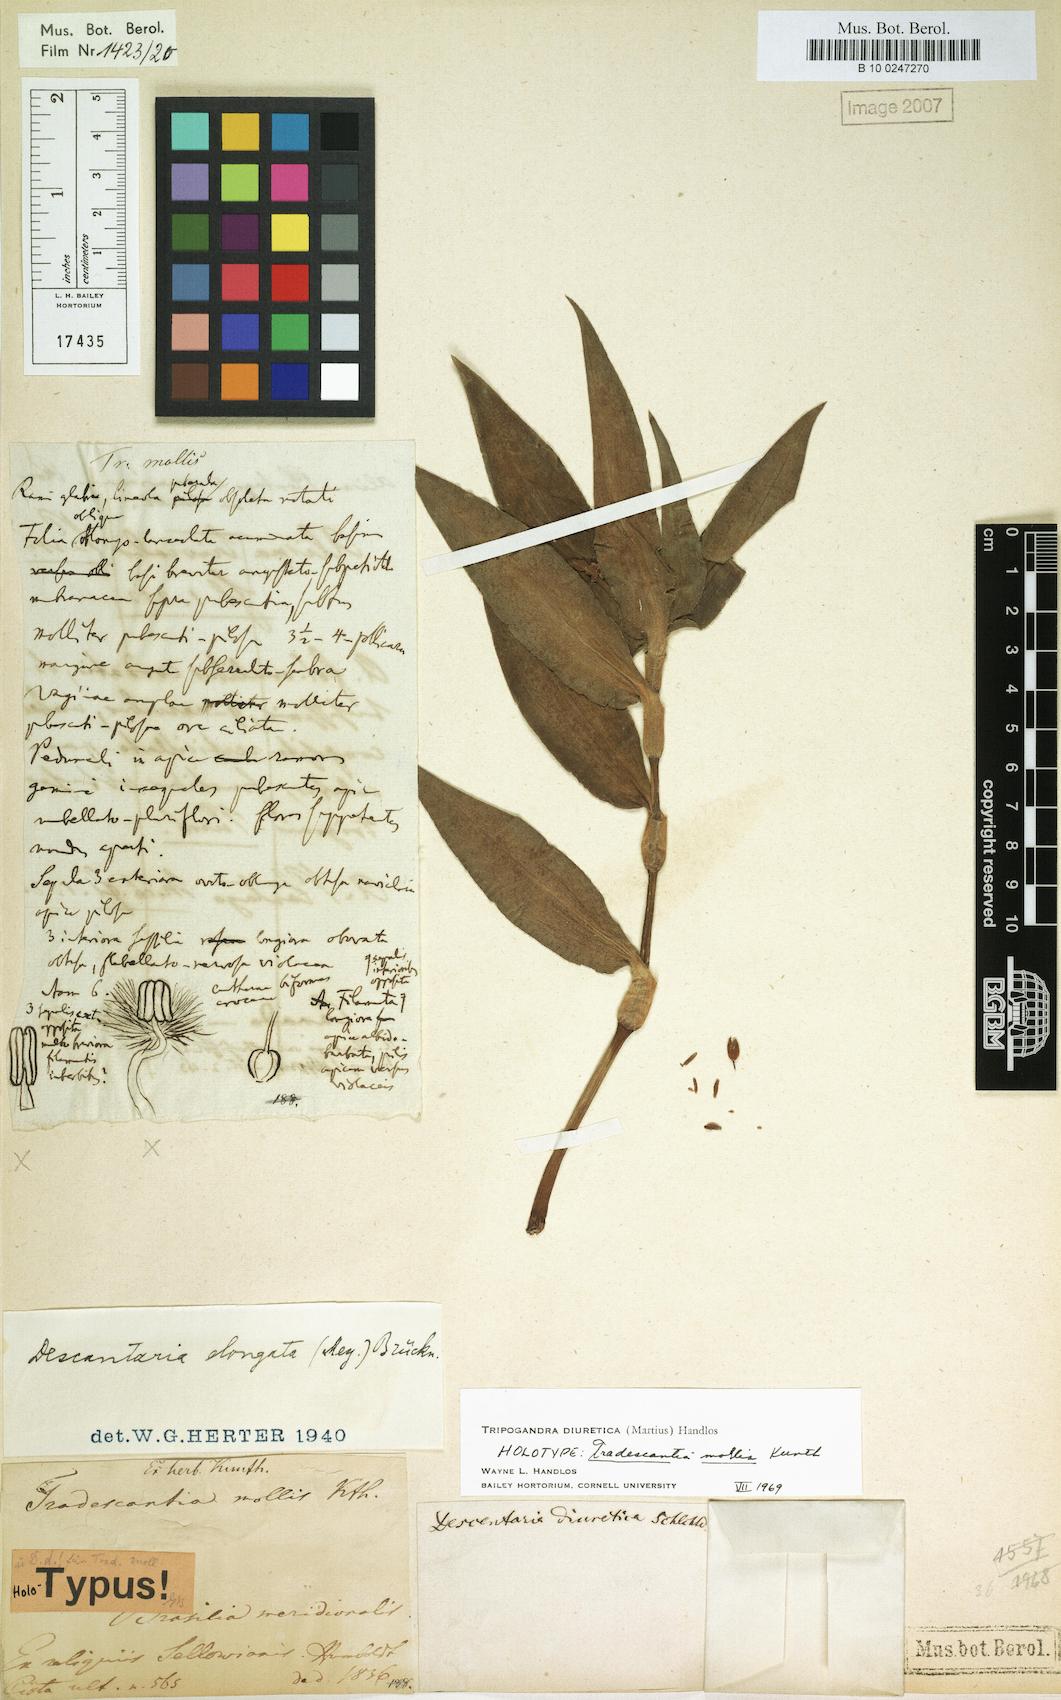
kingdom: Plantae
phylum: Tracheophyta
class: Liliopsida
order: Commelinales
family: Commelinaceae
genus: Callisia
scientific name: Callisia diuretica
